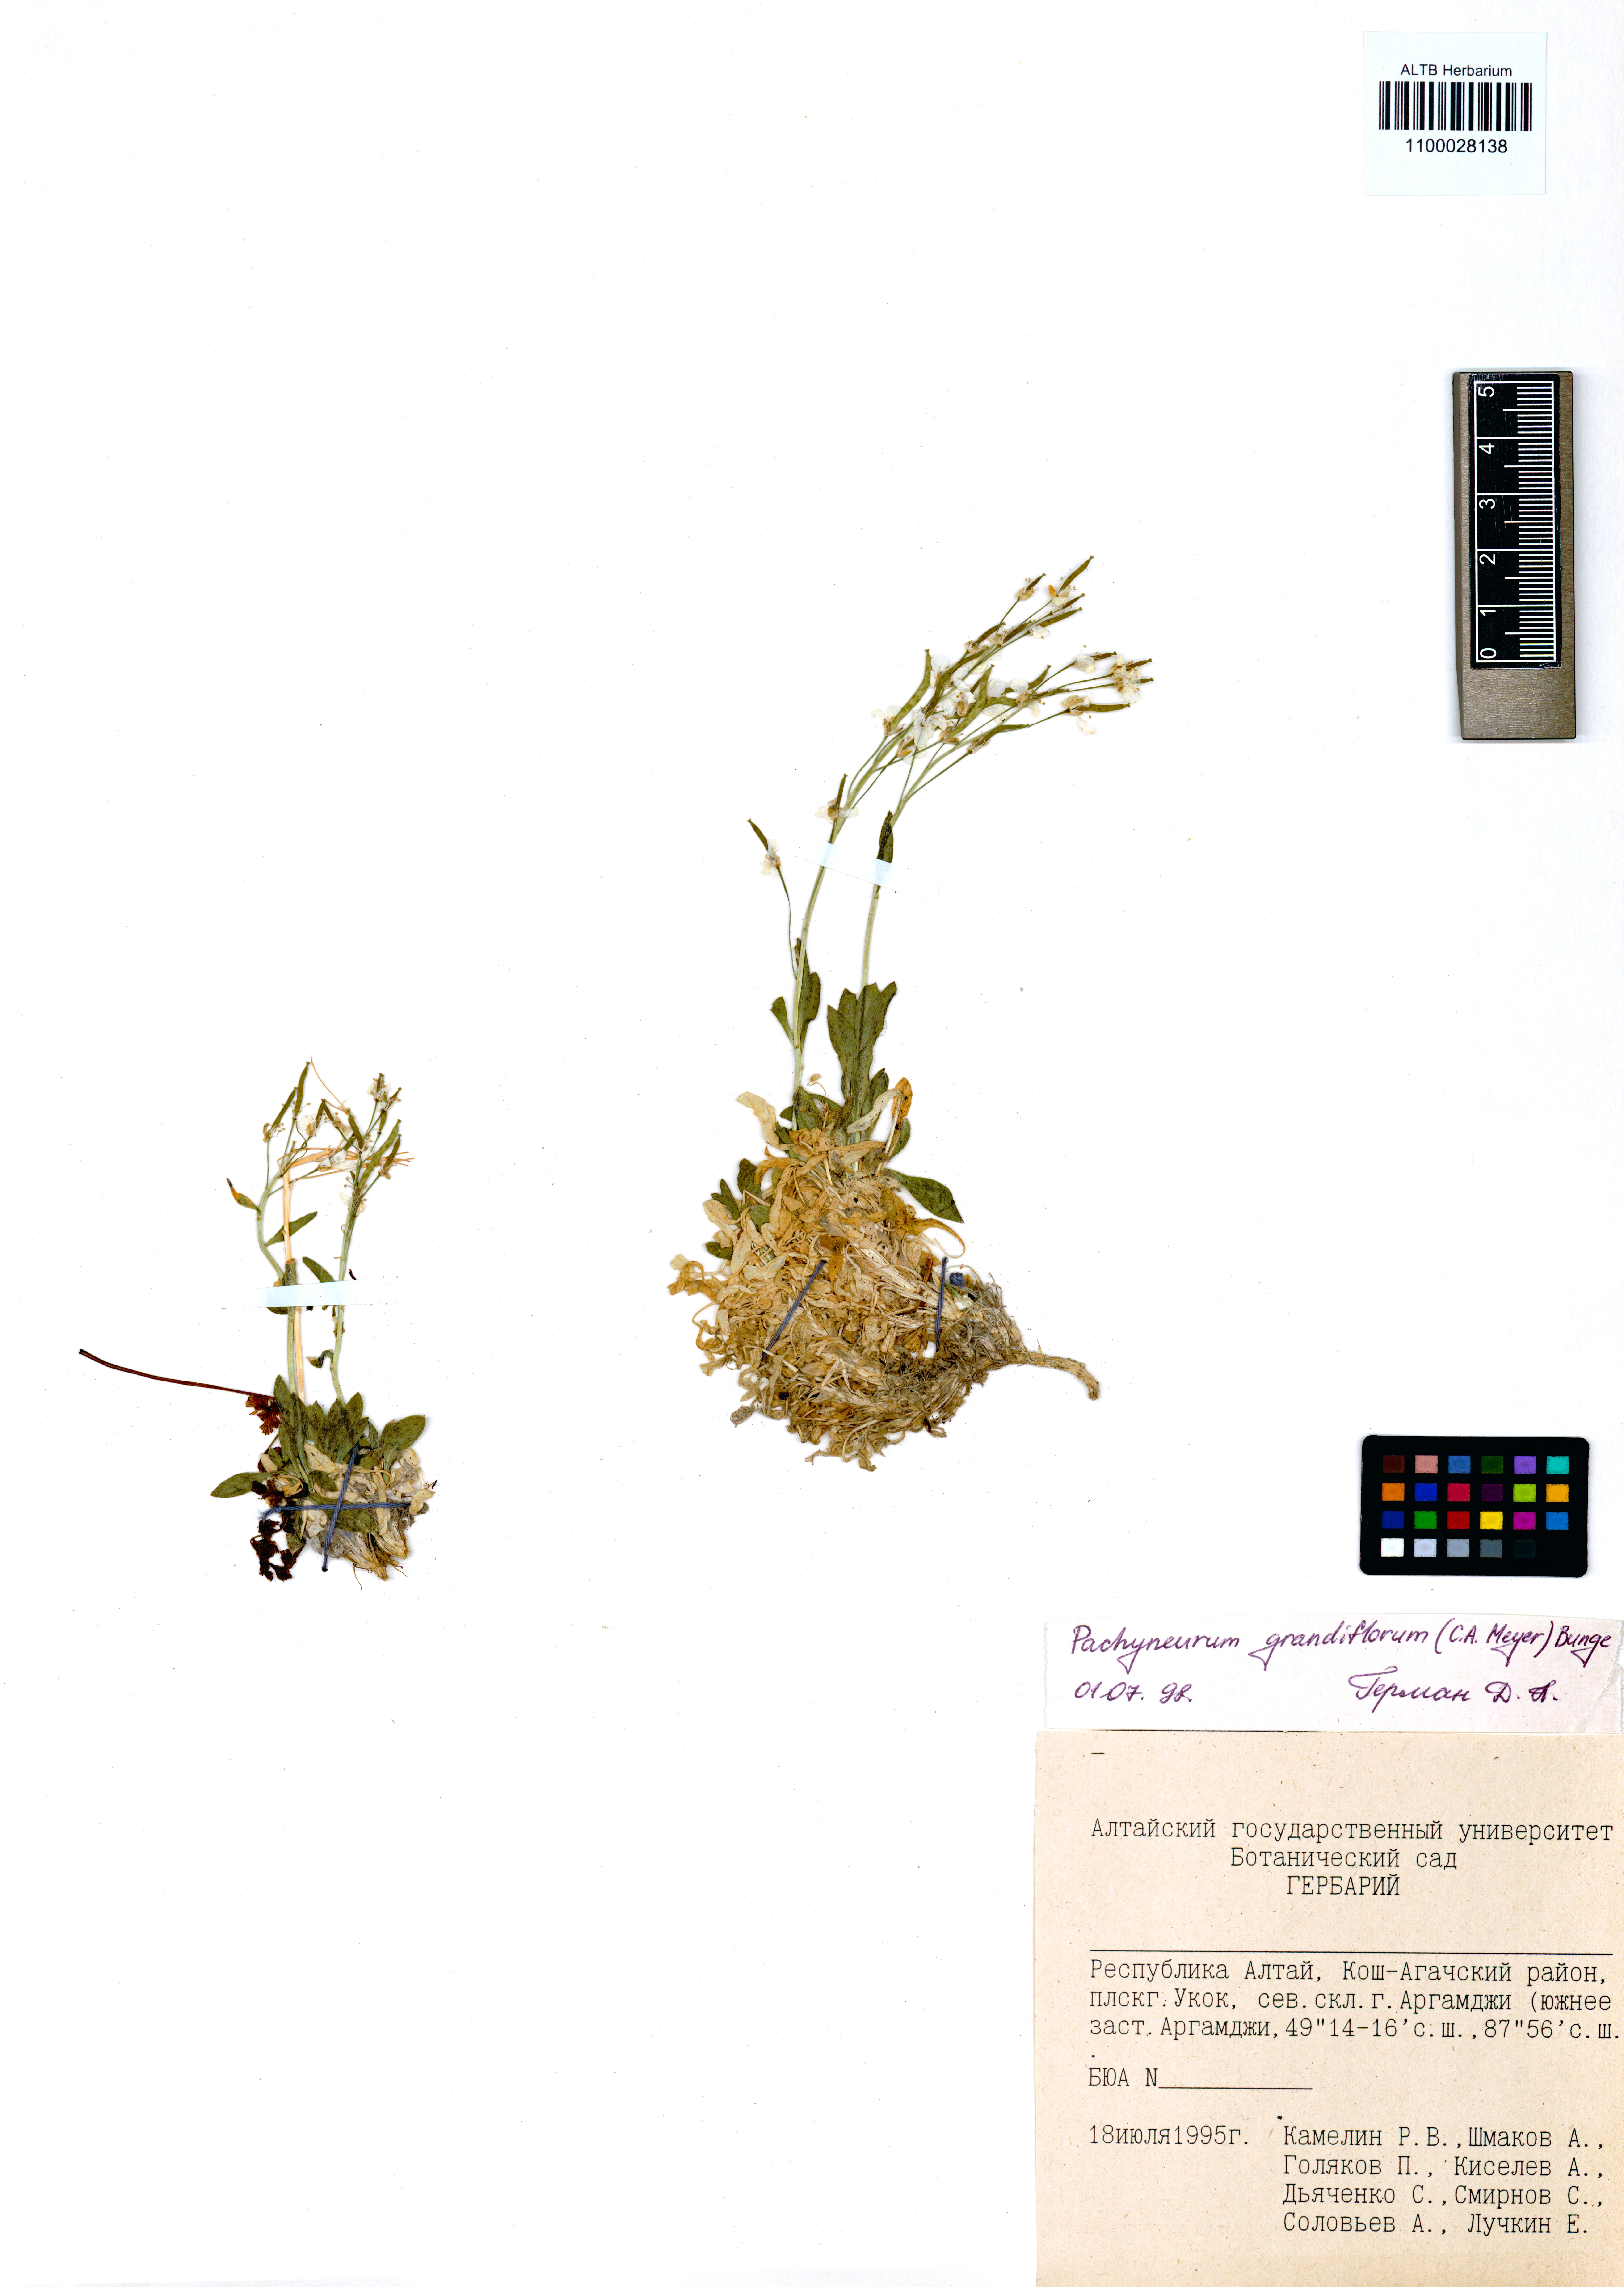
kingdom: Plantae
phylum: Tracheophyta
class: Magnoliopsida
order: Brassicales
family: Brassicaceae
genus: Pachyneurum
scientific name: Pachyneurum grandiflorum
